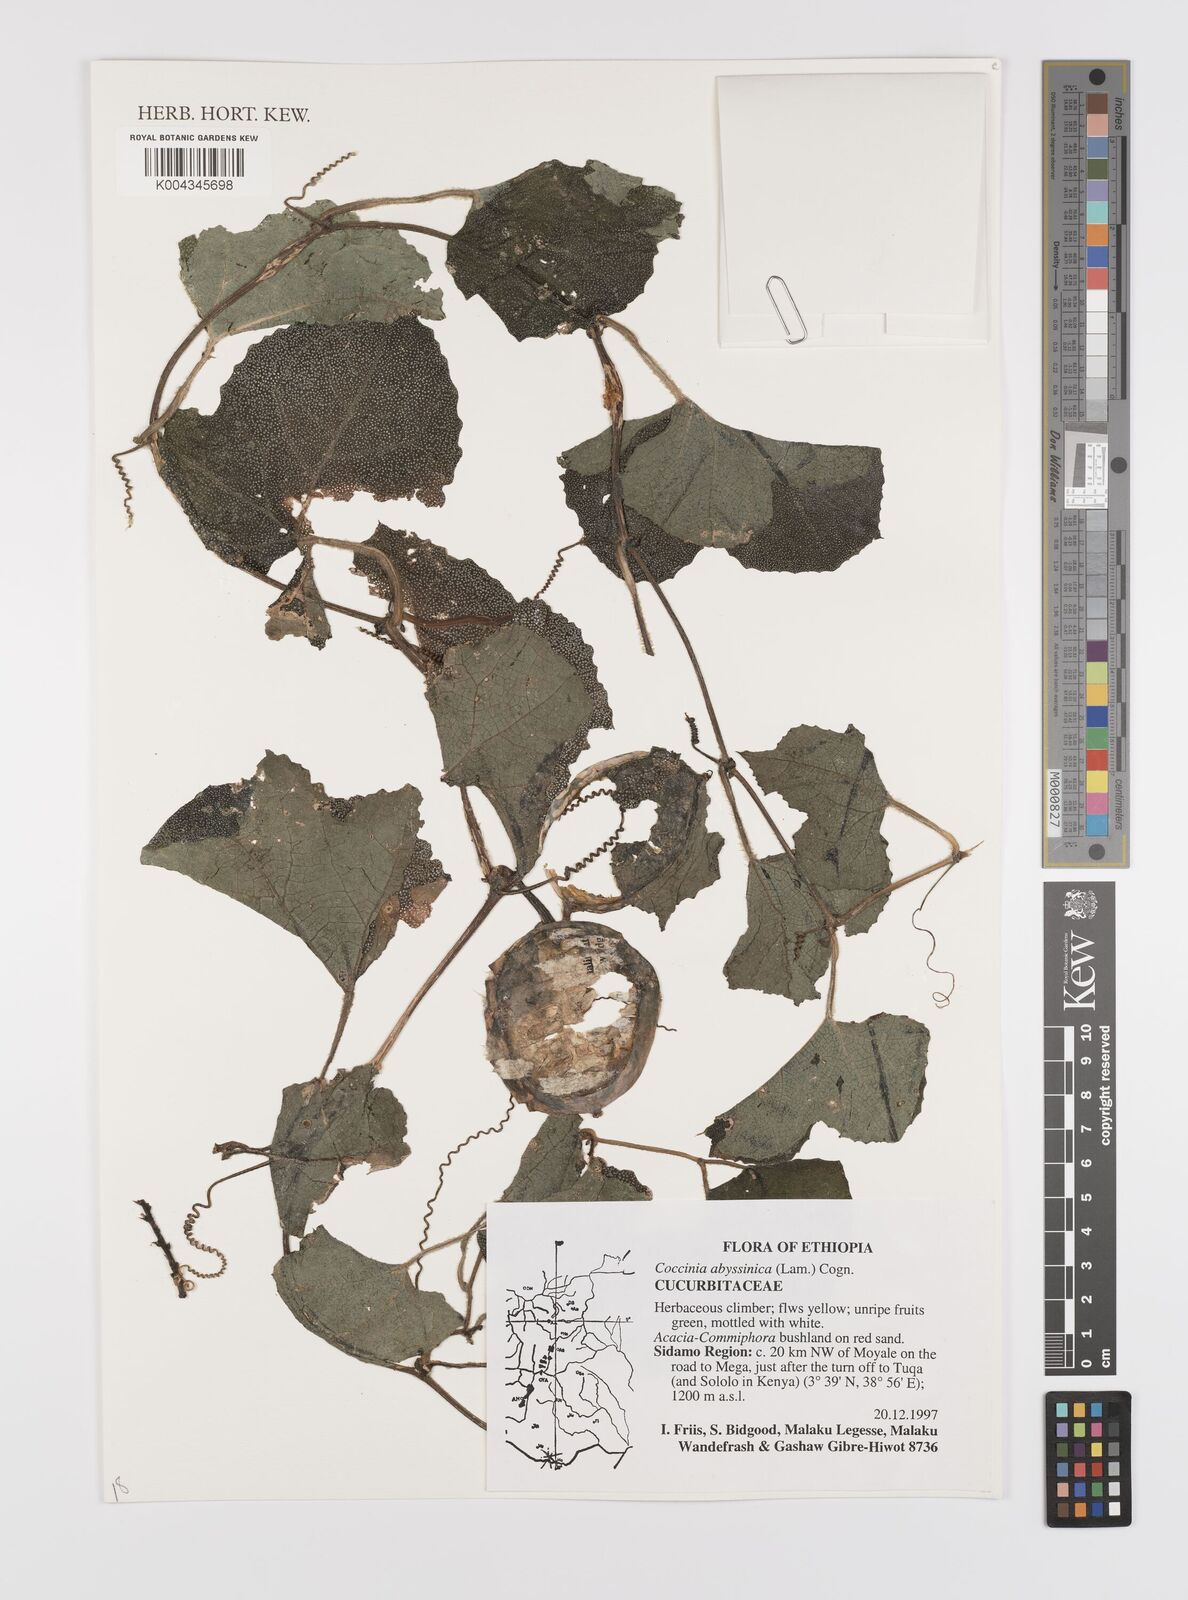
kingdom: Plantae
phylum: Tracheophyta
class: Magnoliopsida
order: Cucurbitales
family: Cucurbitaceae
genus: Coccinia
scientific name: Coccinia abyssinica
